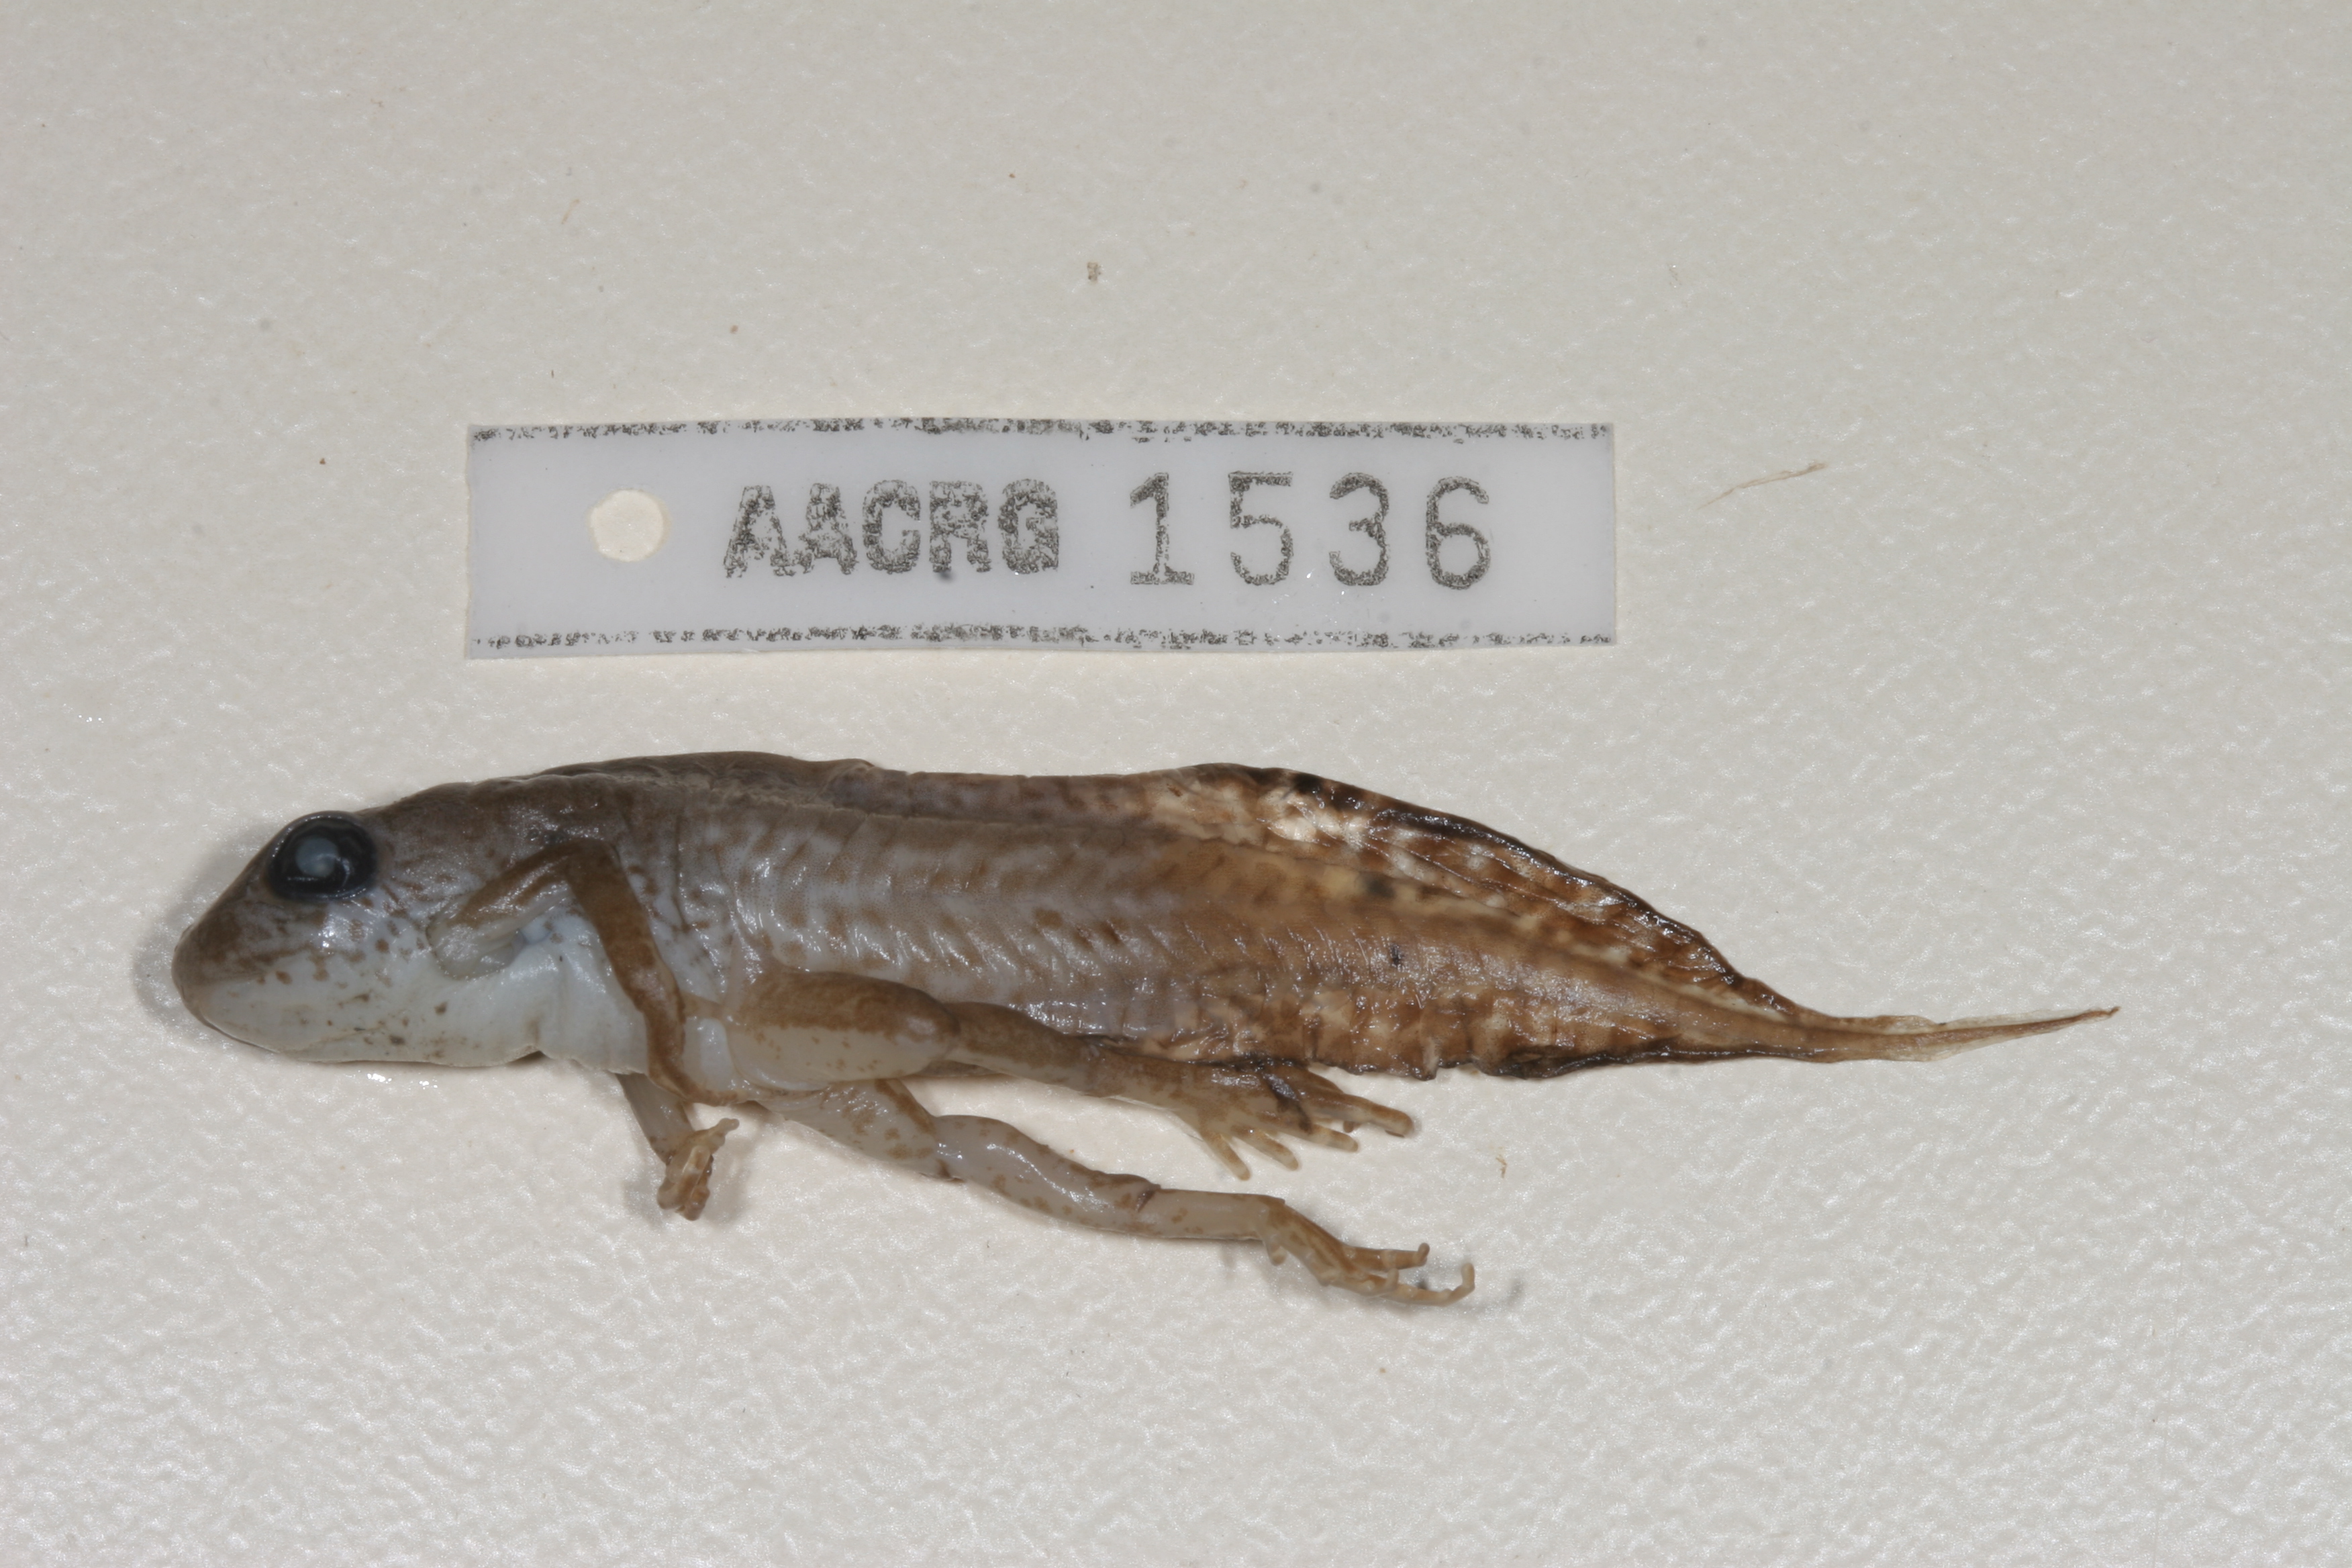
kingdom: Animalia
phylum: Chordata
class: Amphibia
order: Anura
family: Hyperoliidae
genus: Kassina
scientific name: Kassina senegalensis
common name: Senegal land frog
